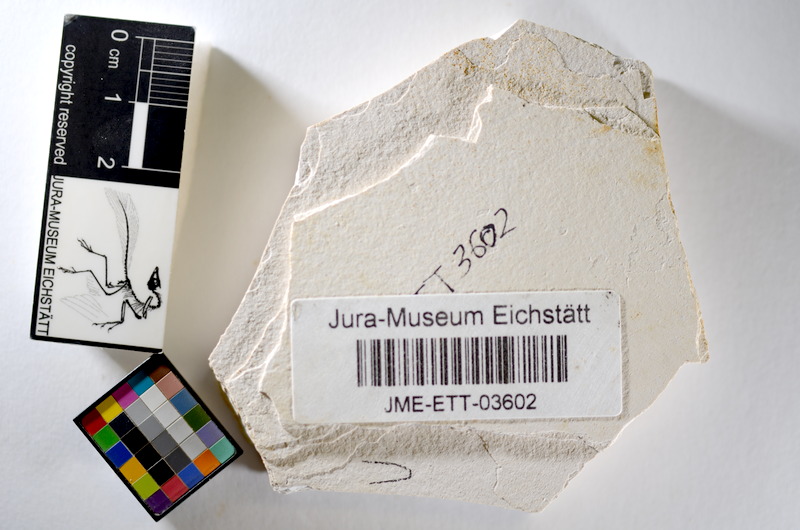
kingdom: Animalia
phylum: Chordata
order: Salmoniformes
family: Orthogonikleithridae
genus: Orthogonikleithrus
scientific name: Orthogonikleithrus hoelli
